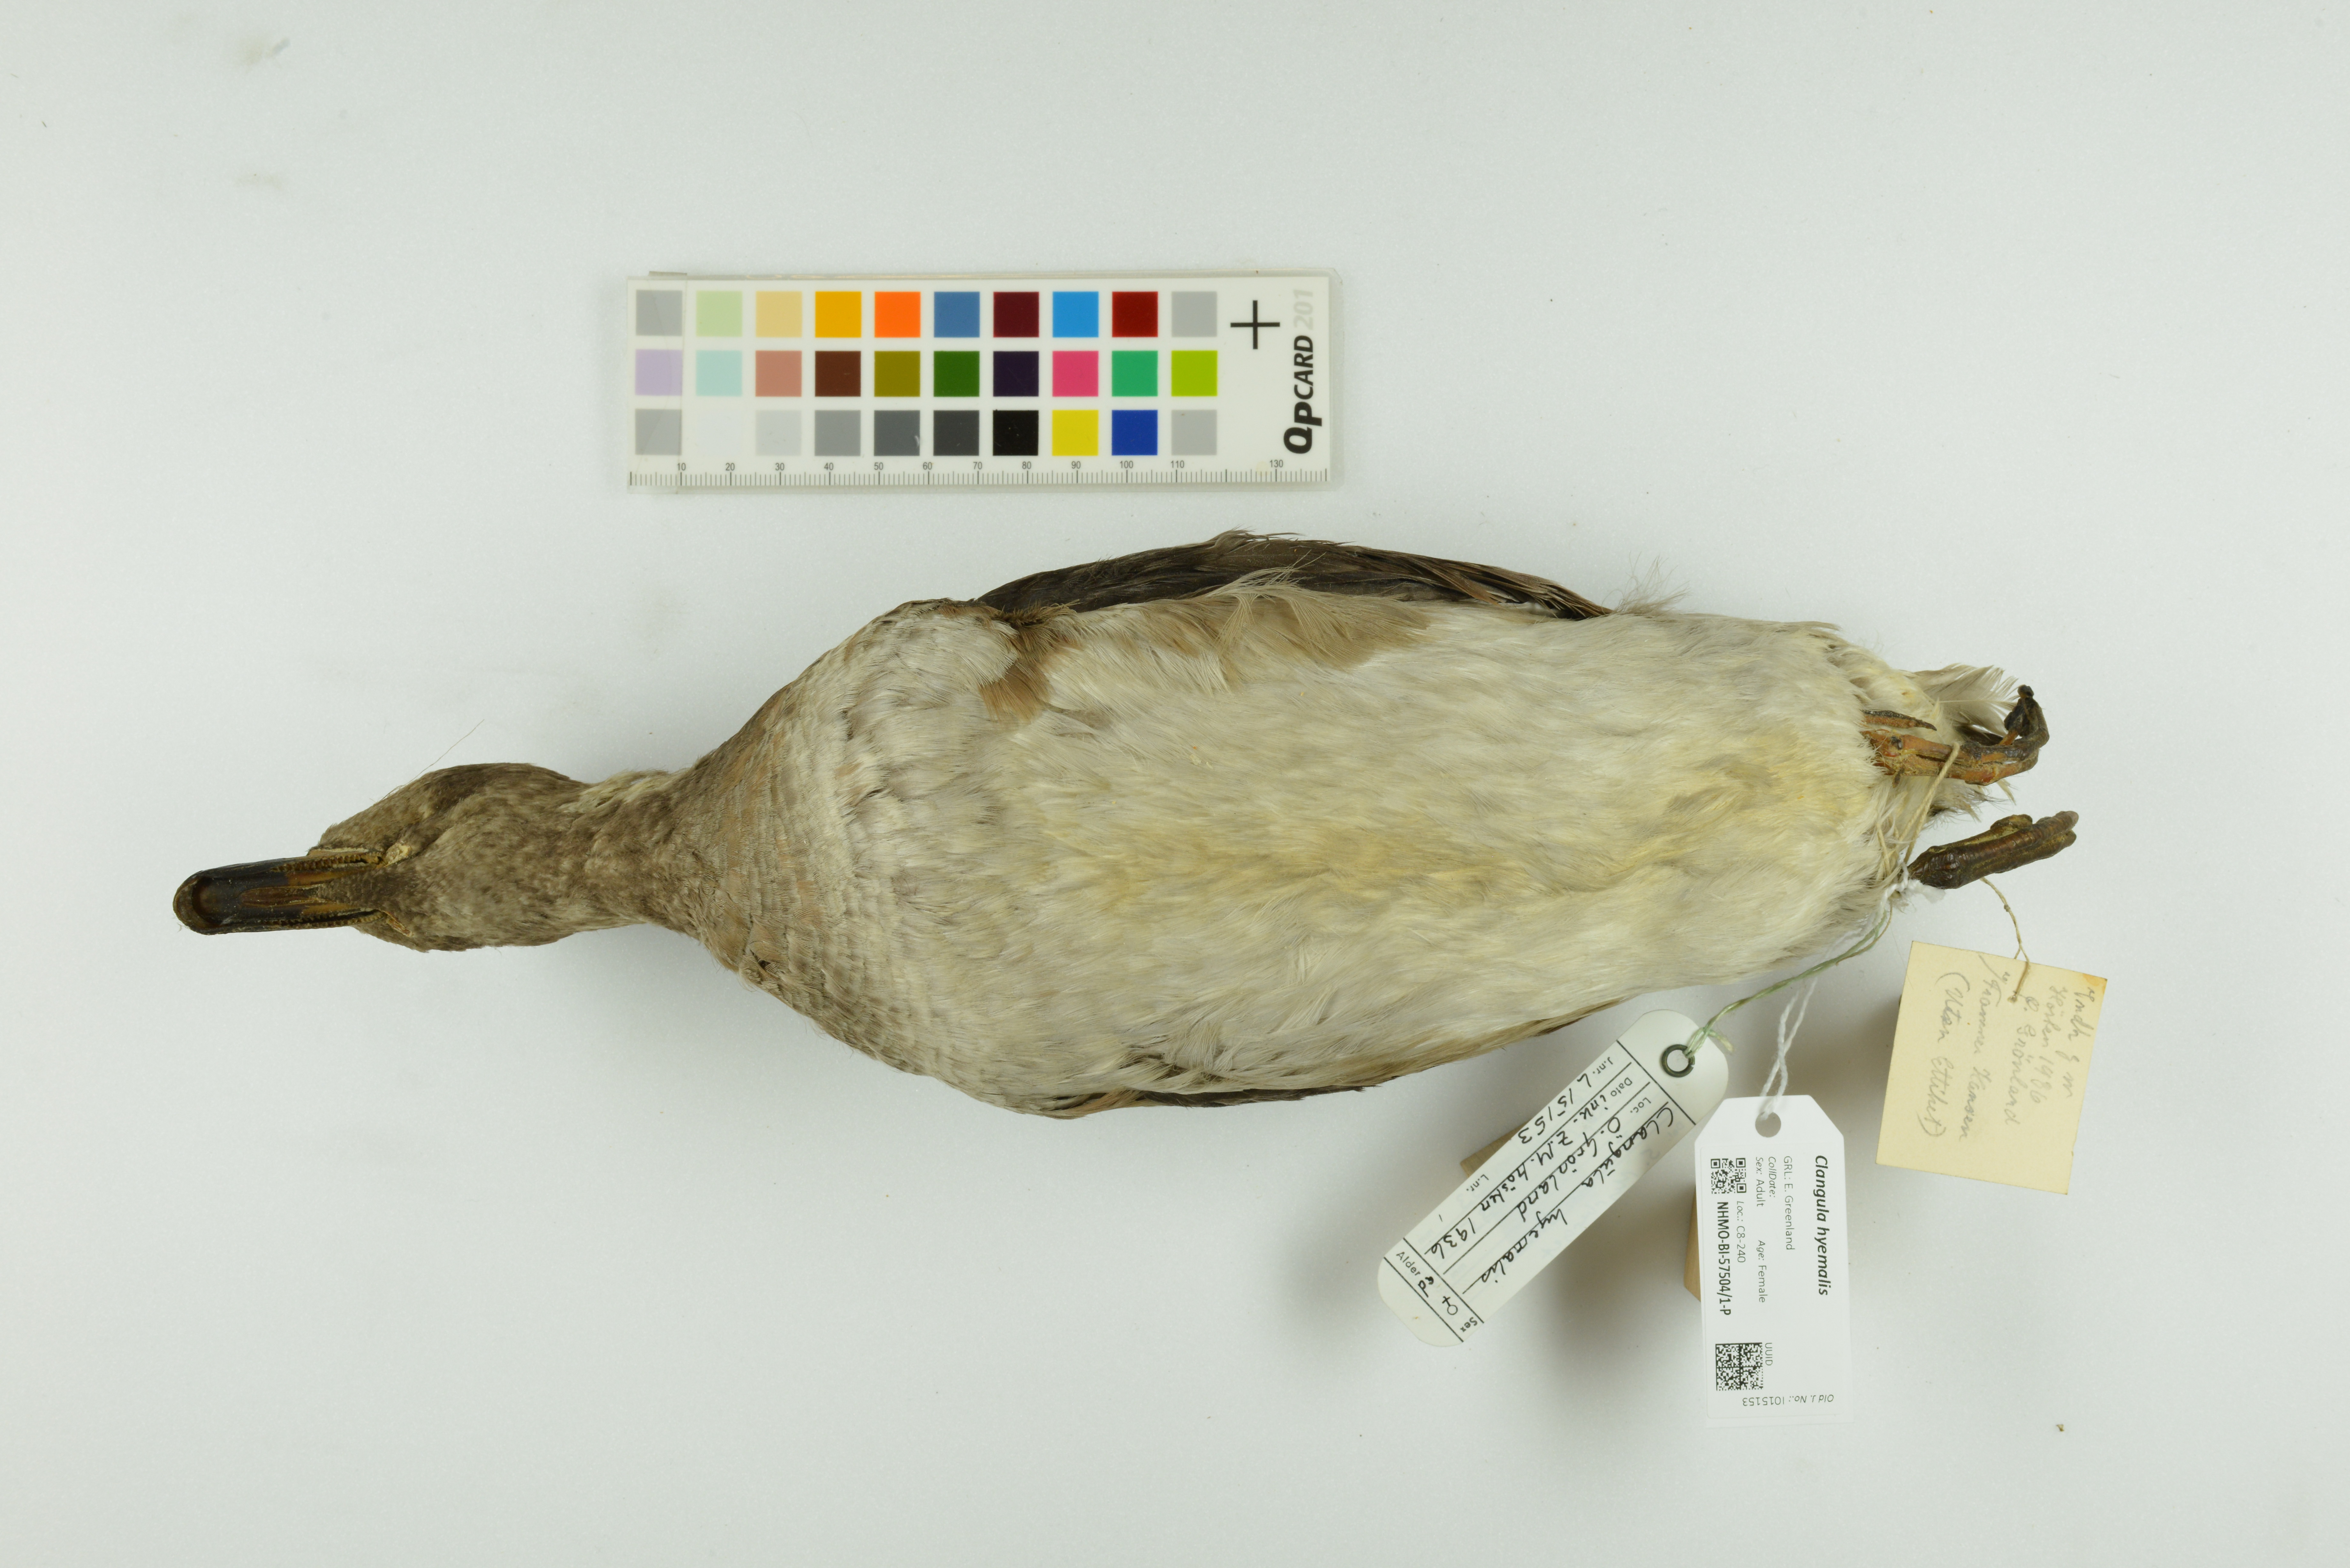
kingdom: Animalia
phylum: Chordata
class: Aves
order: Anseriformes
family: Anatidae
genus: Clangula
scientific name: Clangula hyemalis
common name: Long-tailed duck
